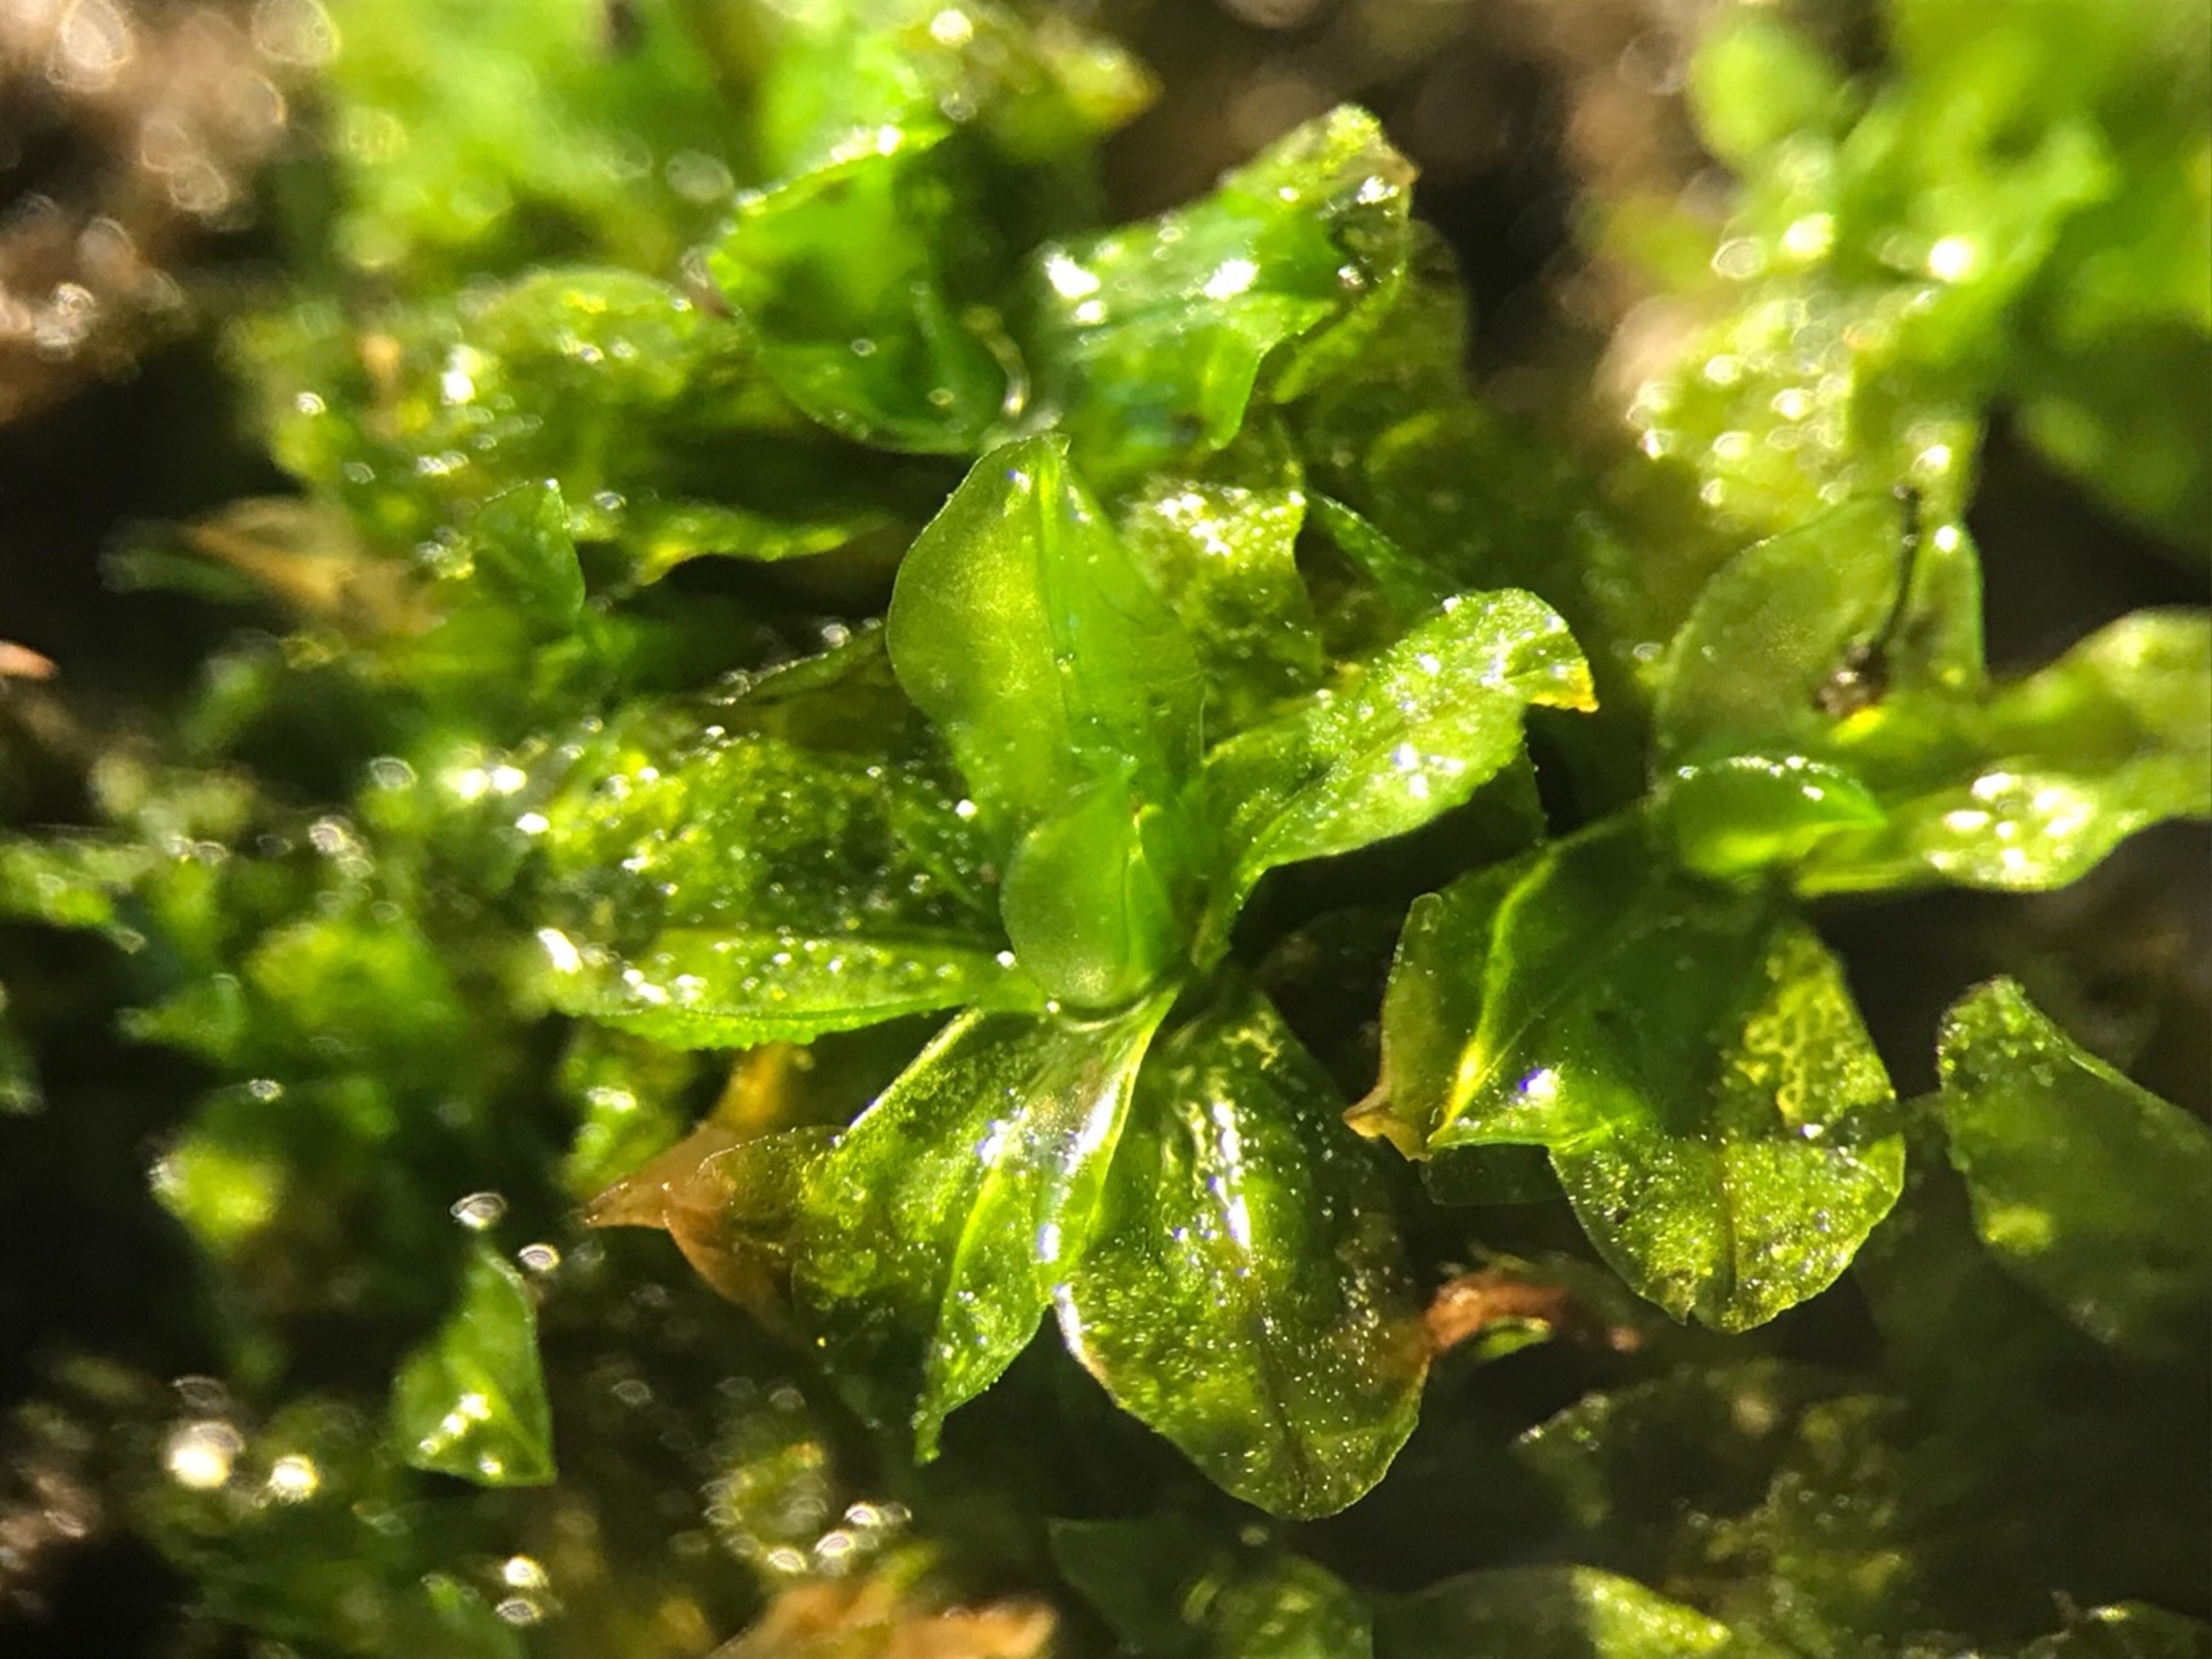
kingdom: Plantae
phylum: Bryophyta
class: Bryopsida
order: Pottiales
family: Pottiaceae
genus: Syntrichia
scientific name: Syntrichia latifolia
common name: Butbladet hårstjerne
